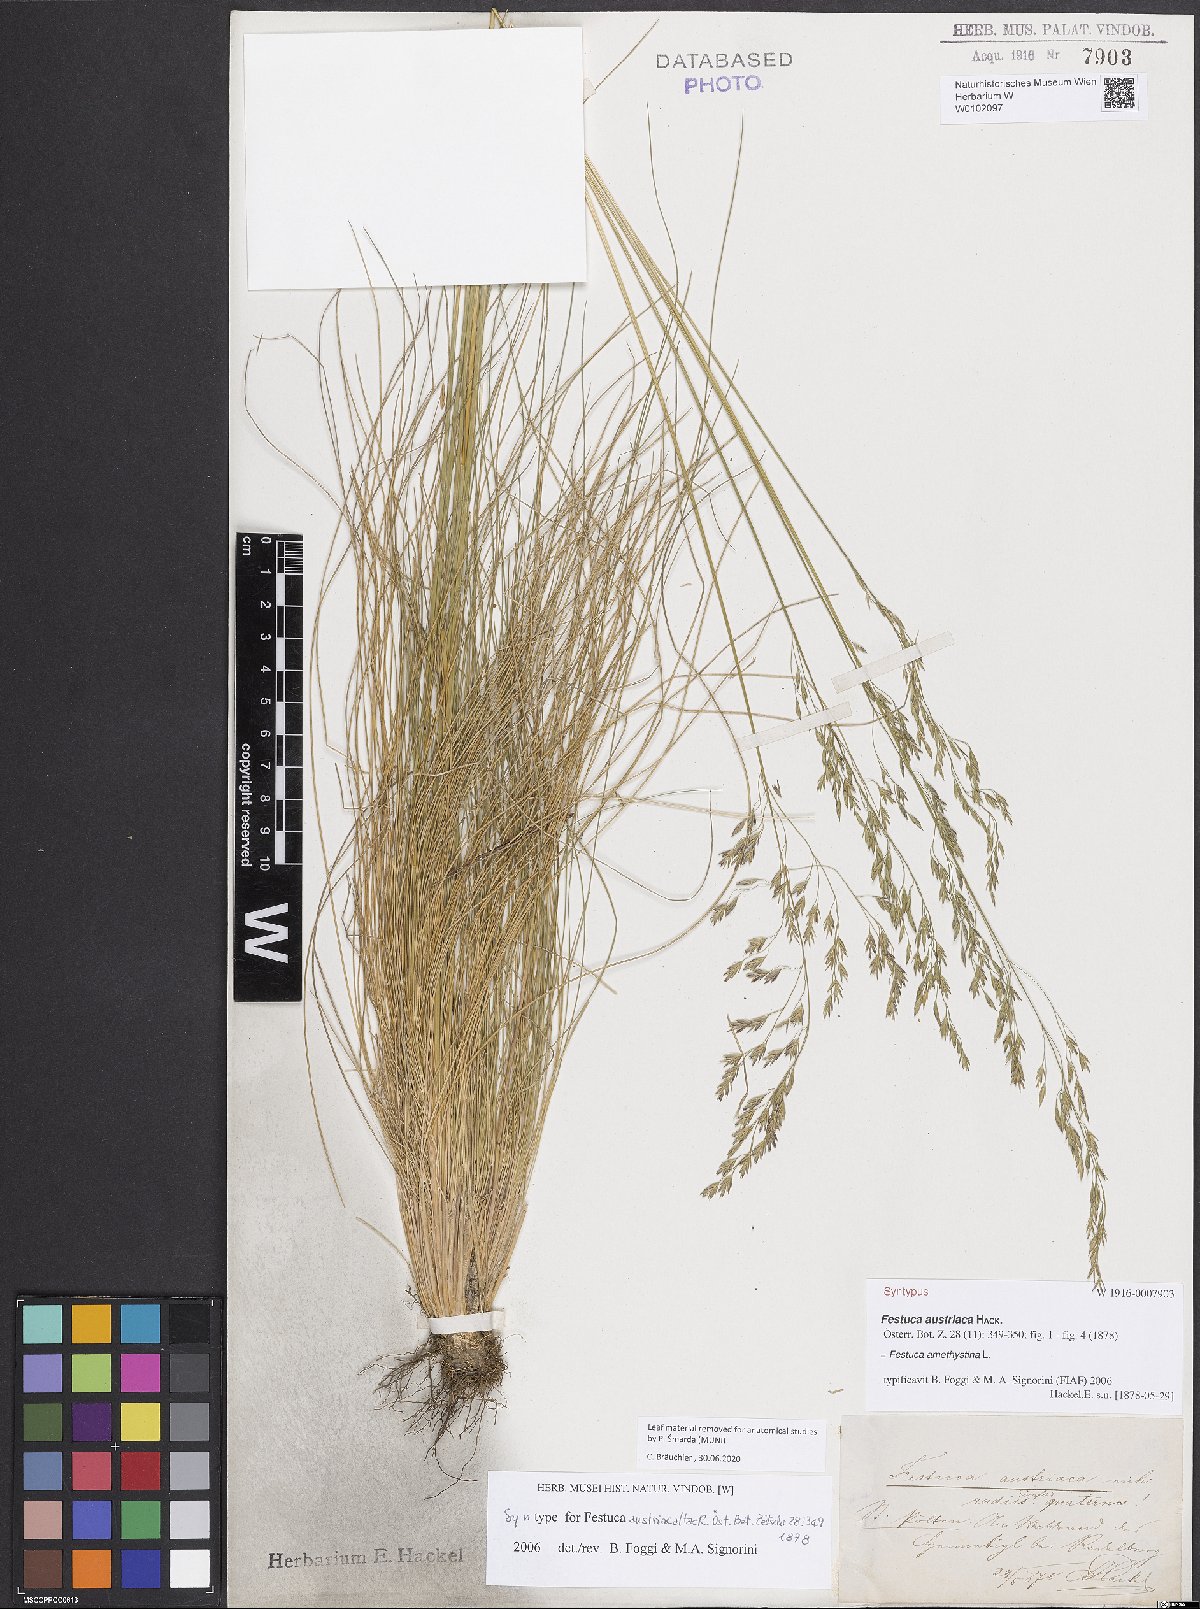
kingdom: Plantae
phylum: Tracheophyta
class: Liliopsida
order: Poales
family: Poaceae
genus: Festuca
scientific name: Festuca amethystina
